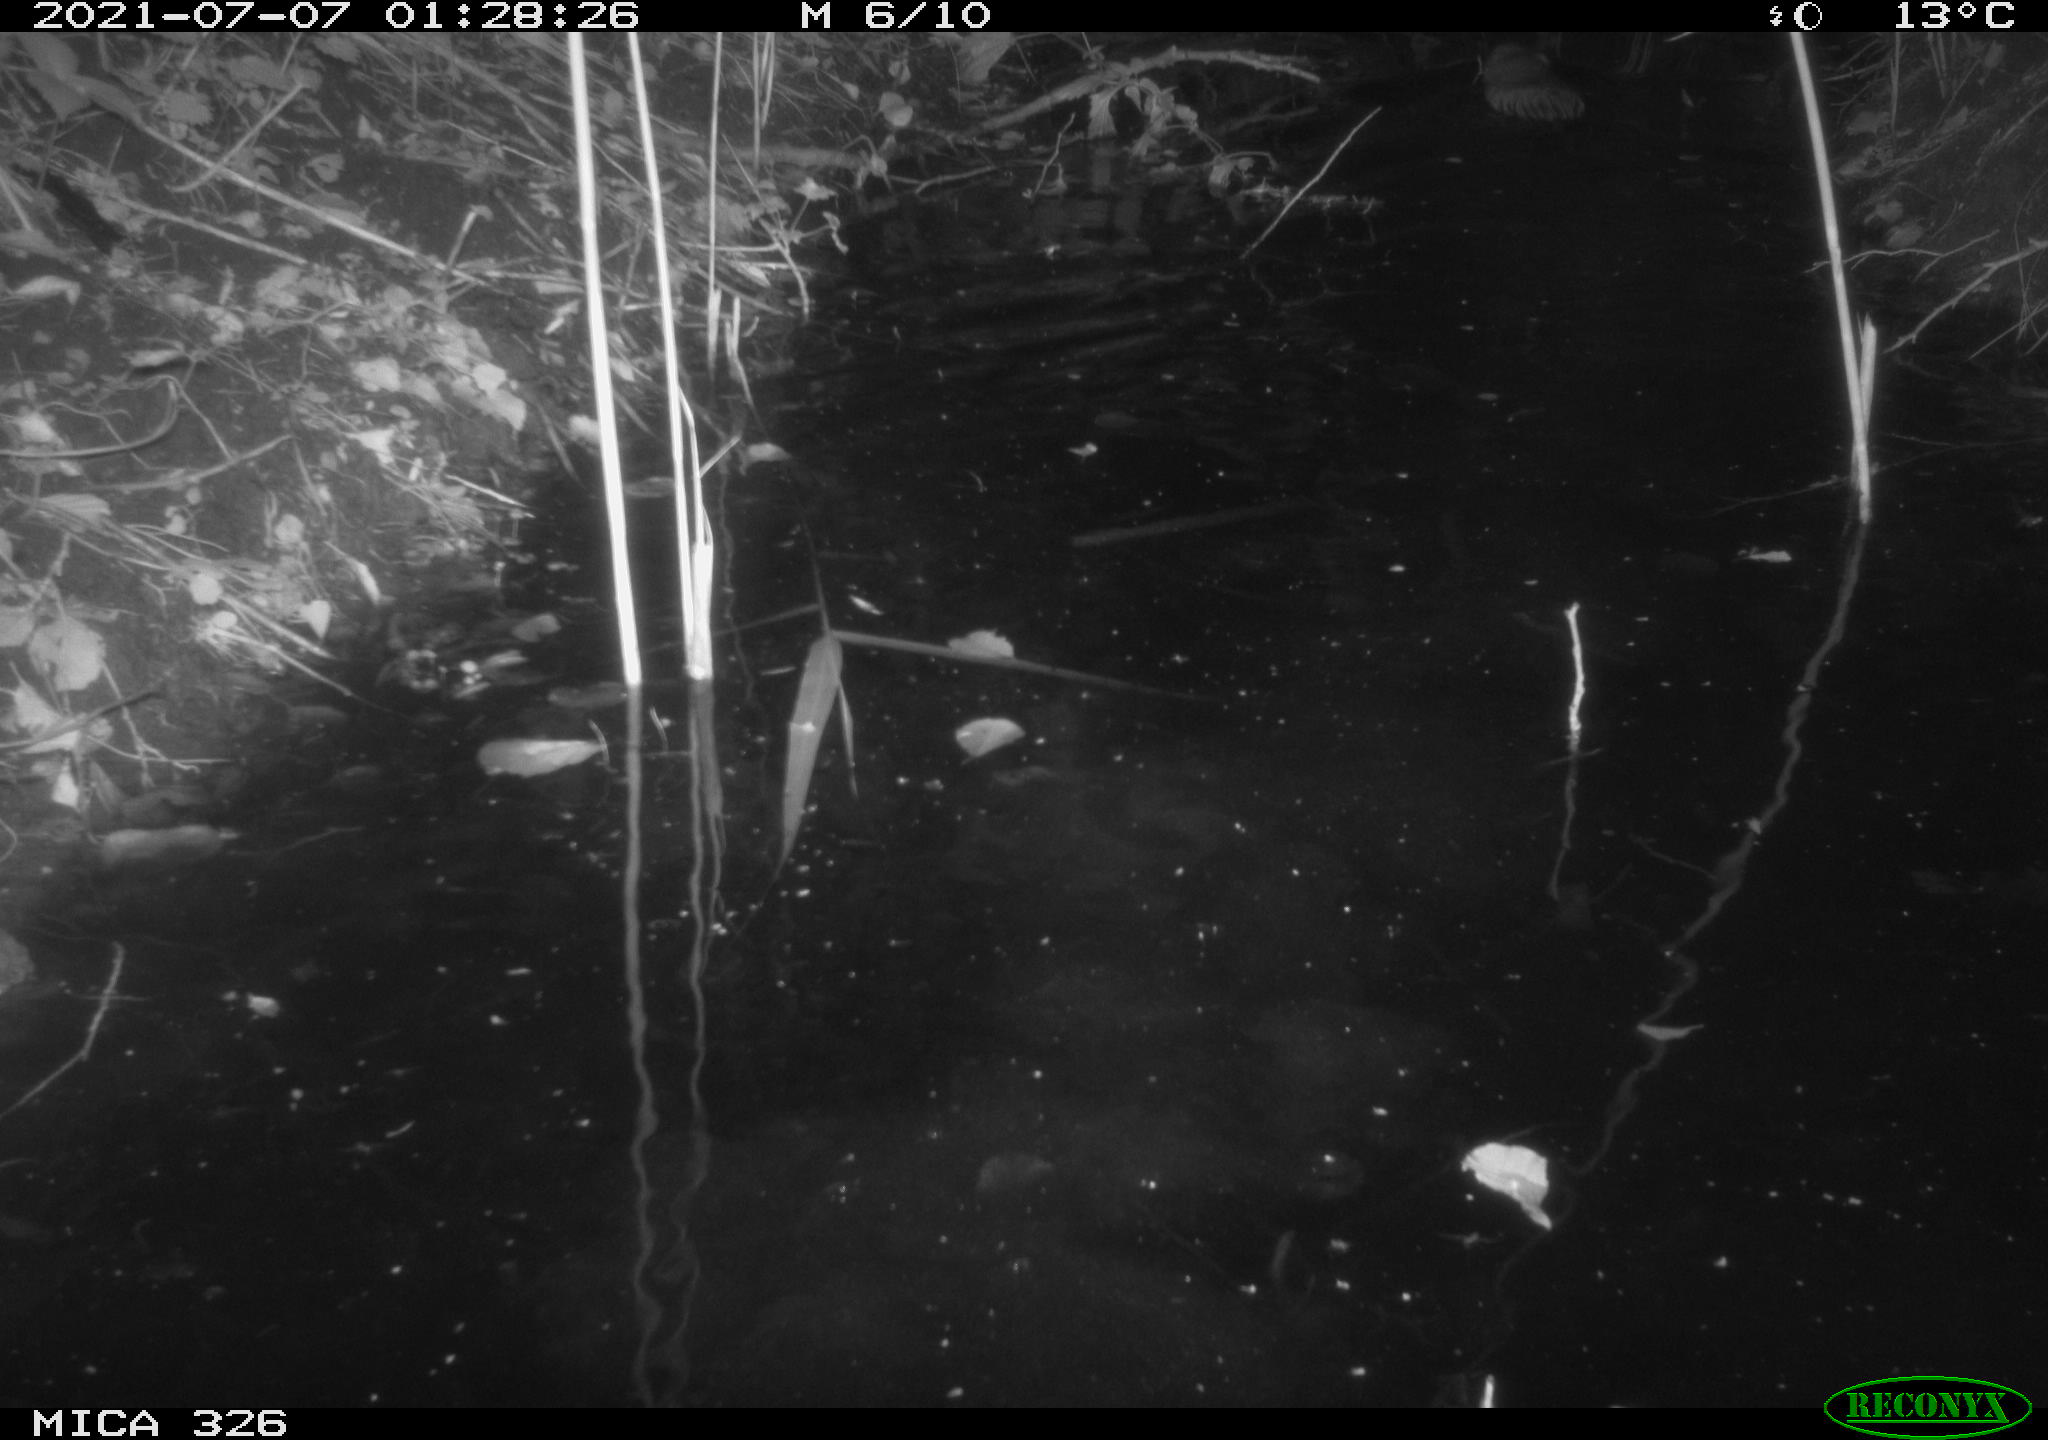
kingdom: Animalia
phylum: Chordata
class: Mammalia
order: Rodentia
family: Cricetidae
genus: Ondatra
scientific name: Ondatra zibethicus
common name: Muskrat
